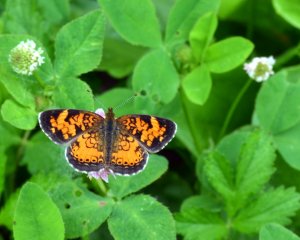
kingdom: Animalia
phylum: Arthropoda
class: Insecta
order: Lepidoptera
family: Nymphalidae
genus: Phyciodes
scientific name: Phyciodes tharos
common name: Northern Crescent
